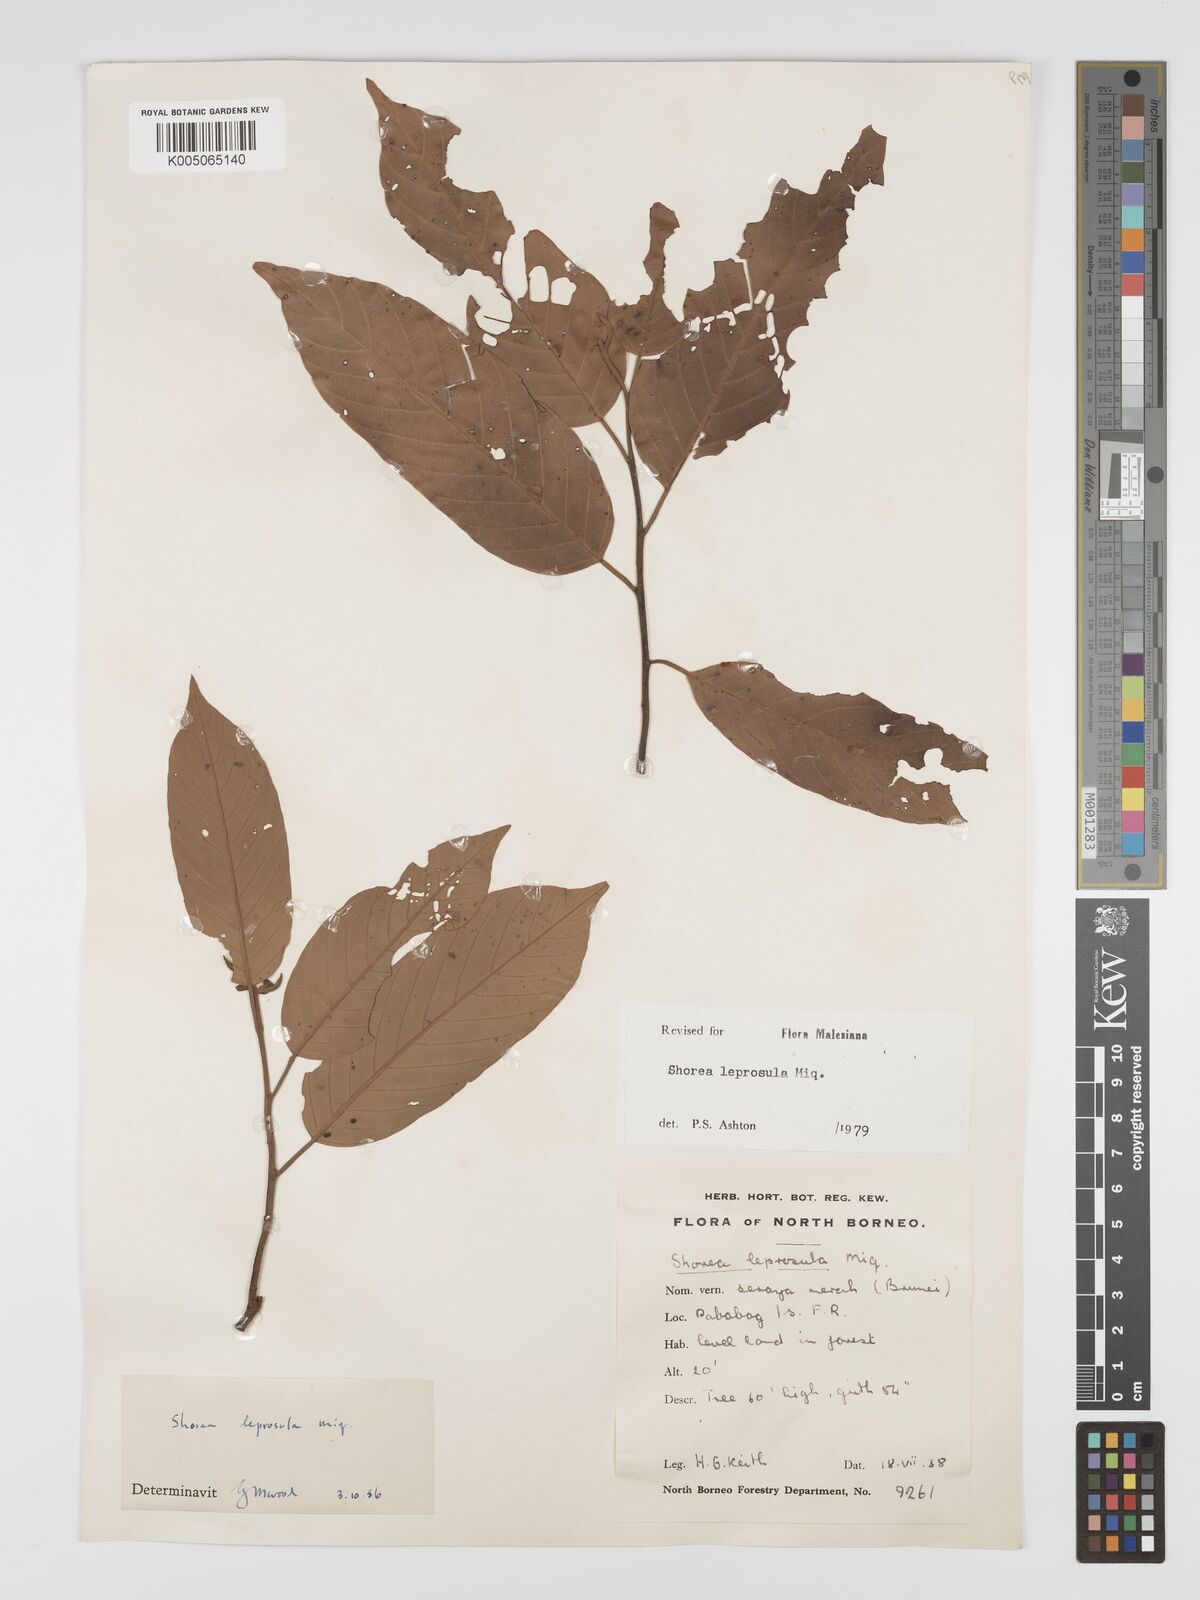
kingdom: Plantae
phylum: Tracheophyta
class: Magnoliopsida
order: Malvales
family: Dipterocarpaceae
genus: Shorea
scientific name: Shorea leprosula
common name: Light red meranti
